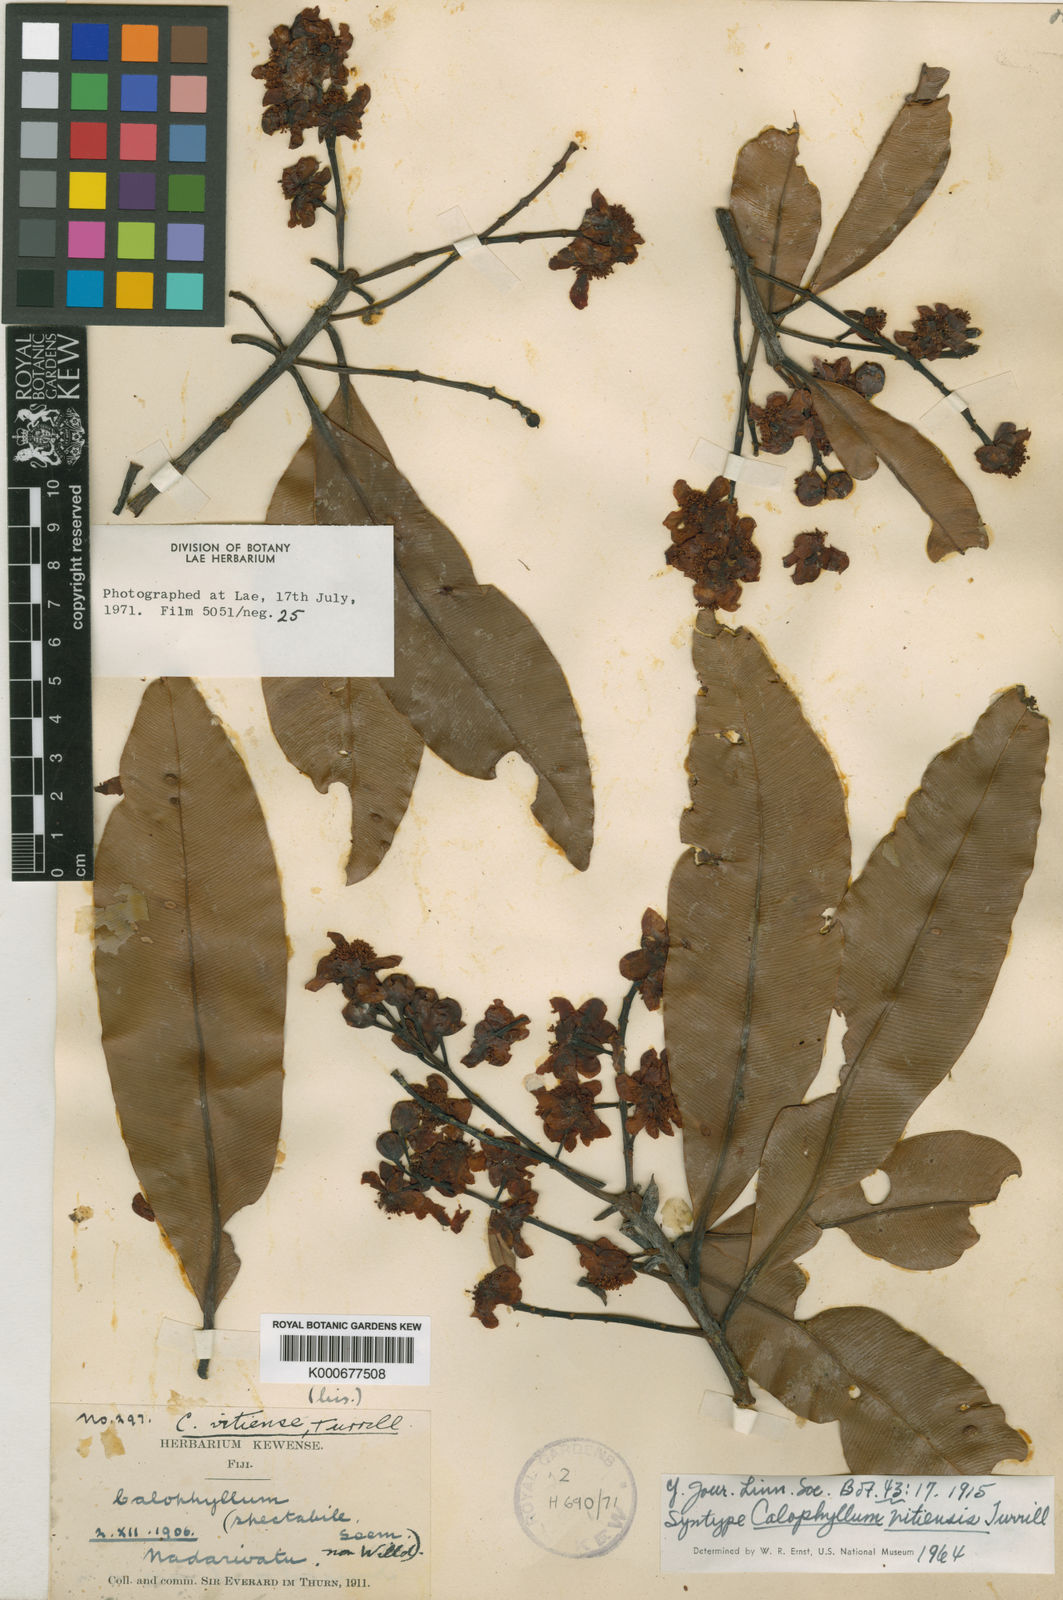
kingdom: Plantae
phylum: Tracheophyta
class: Magnoliopsida
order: Malpighiales
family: Calophyllaceae
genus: Calophyllum
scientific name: Calophyllum vitiense
